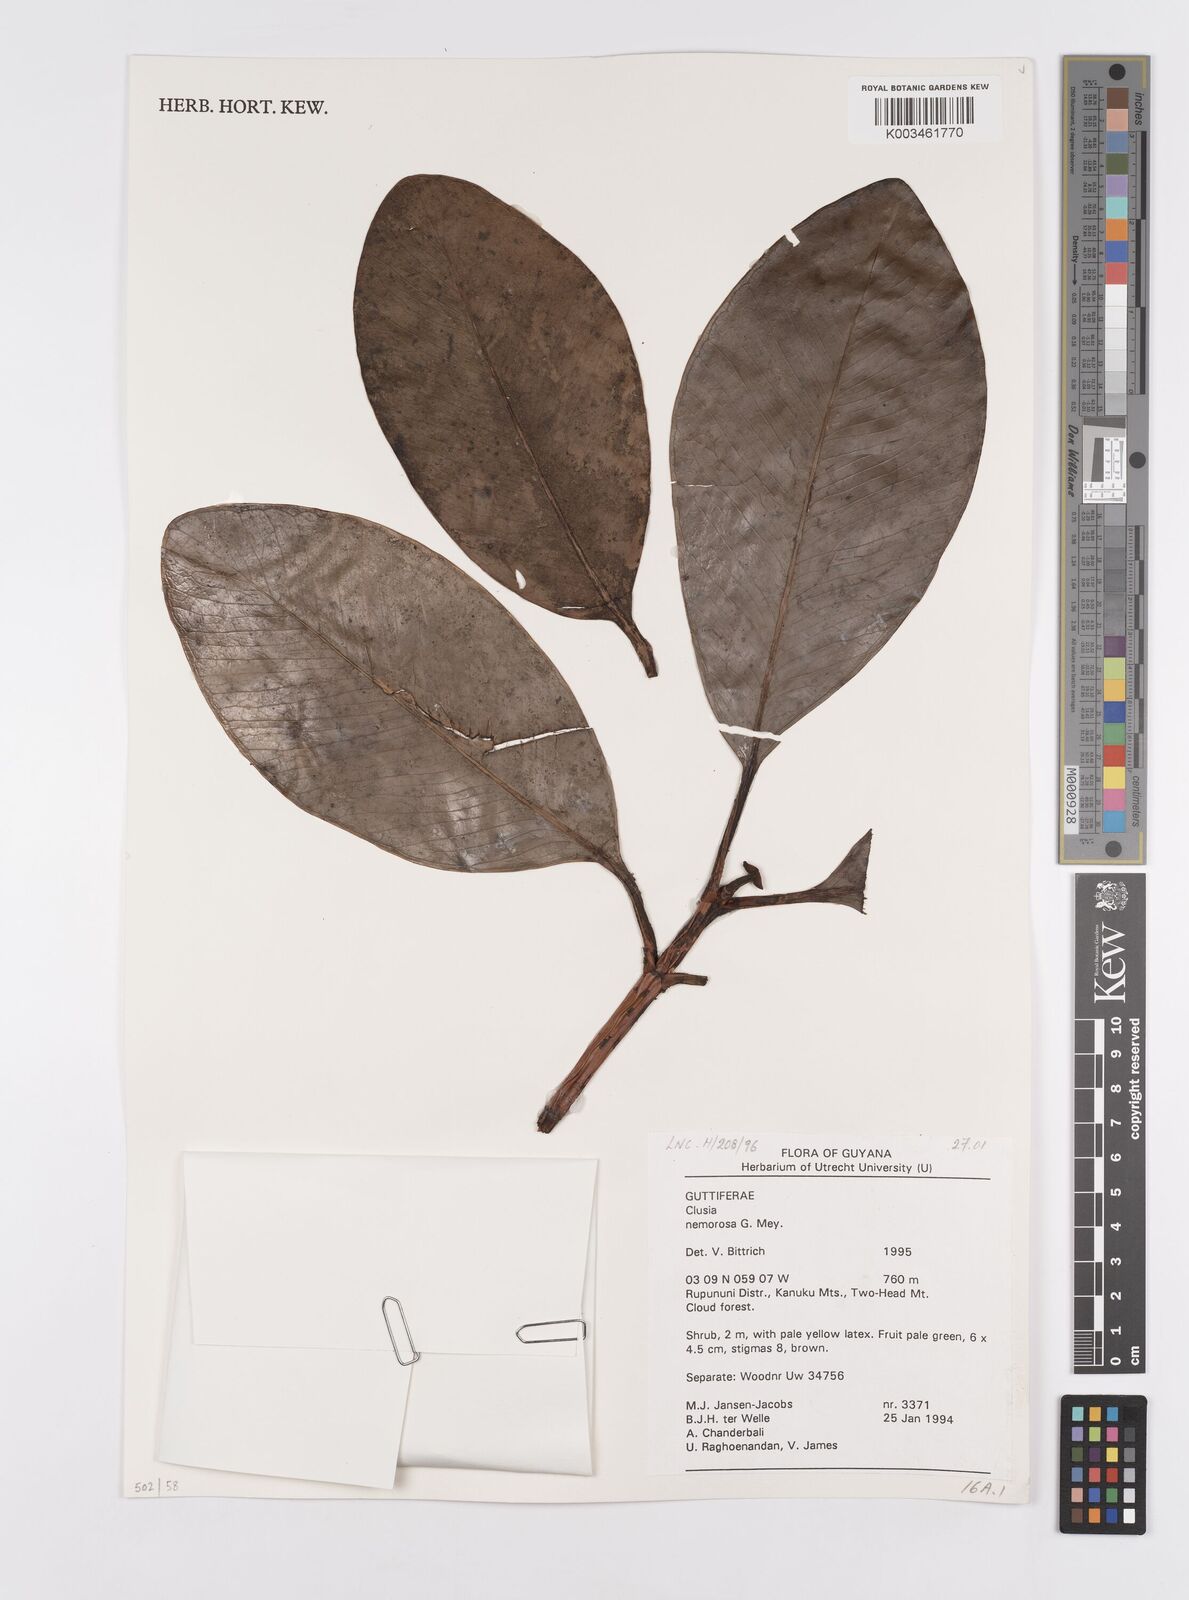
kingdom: Plantae
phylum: Tracheophyta
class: Magnoliopsida
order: Malpighiales
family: Clusiaceae
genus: Clusia
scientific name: Clusia nemorosa
